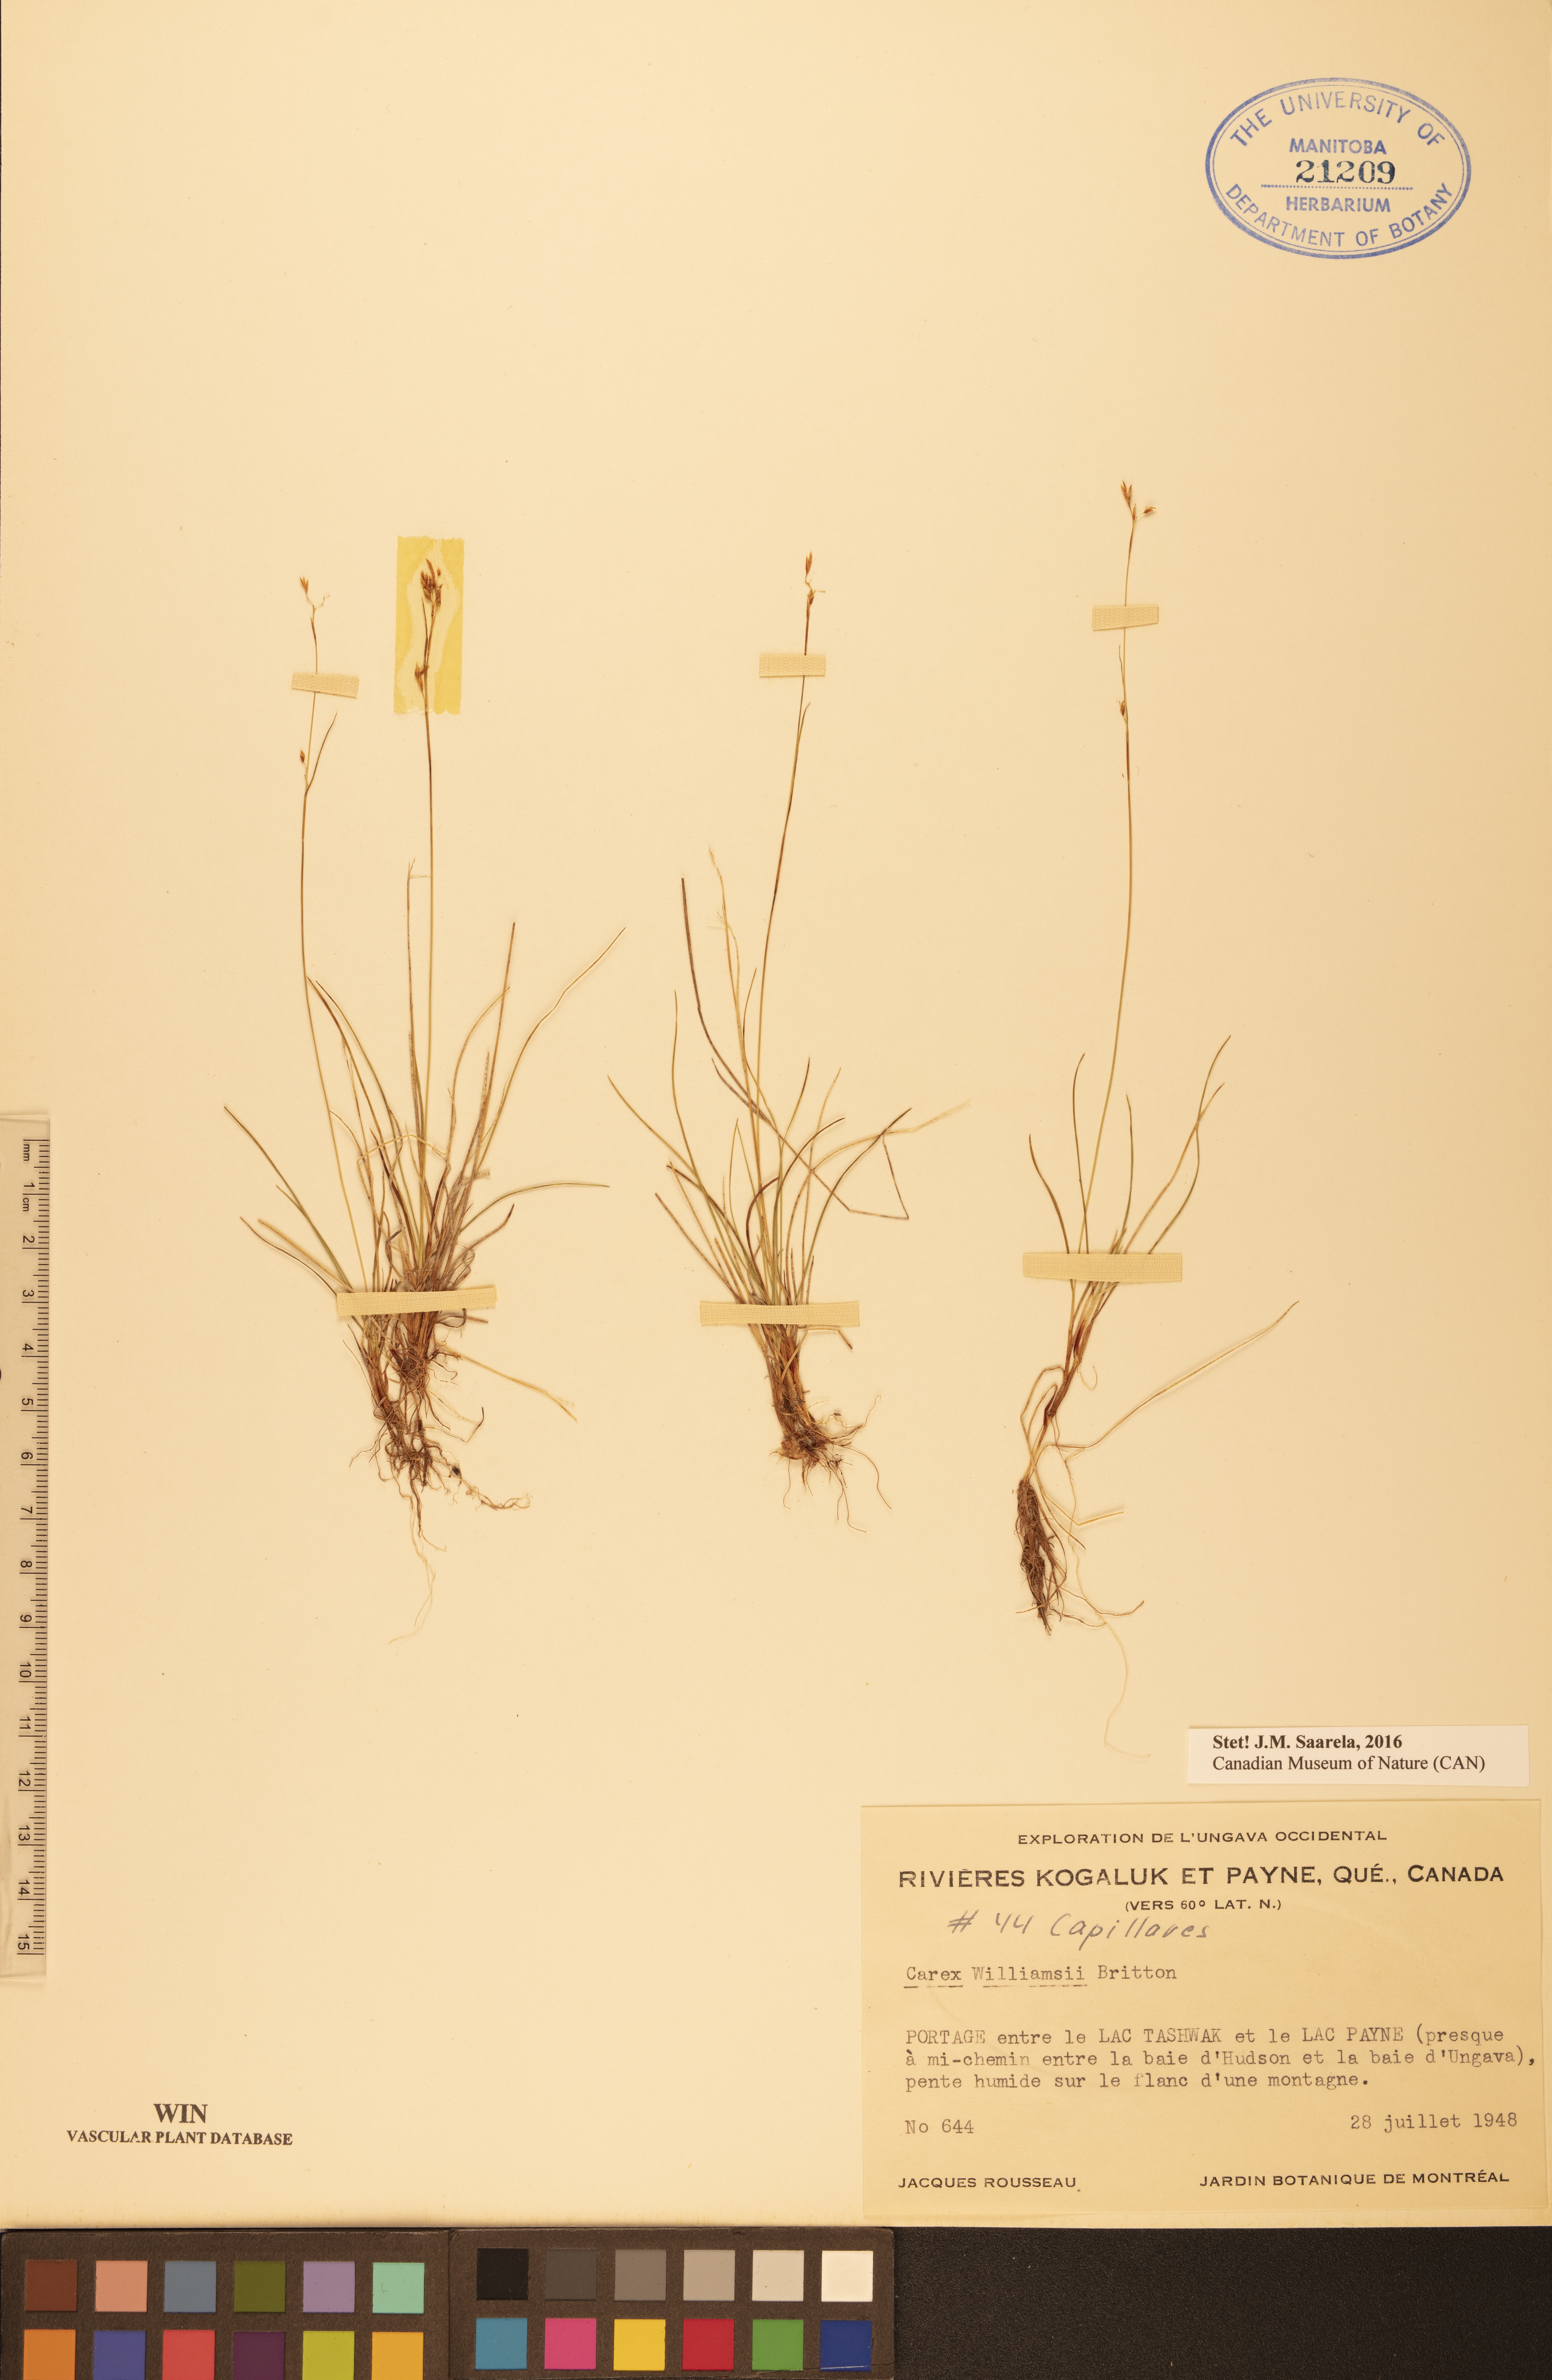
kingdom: Plantae
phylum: Tracheophyta
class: Liliopsida
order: Poales
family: Cyperaceae
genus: Carex
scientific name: Carex williamsii
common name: Williams' sedge
